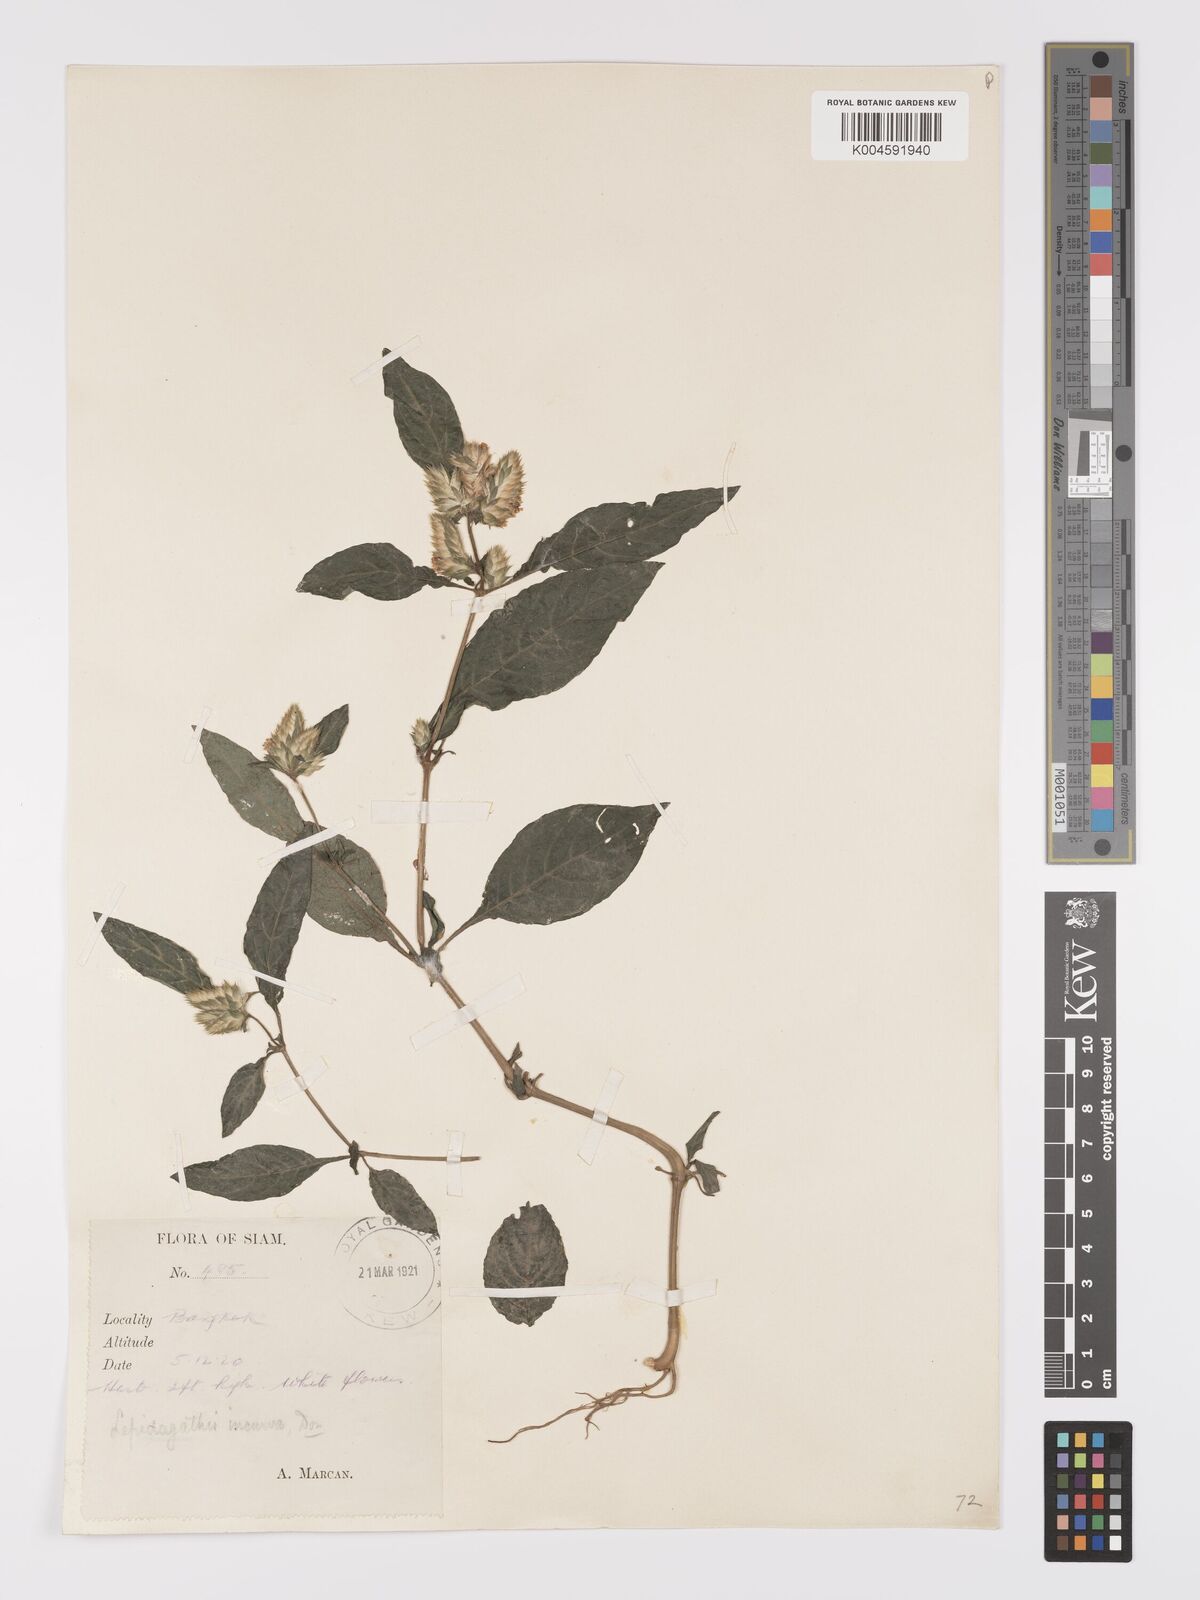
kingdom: Plantae
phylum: Tracheophyta
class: Magnoliopsida
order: Lamiales
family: Acanthaceae
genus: Lepidagathis
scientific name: Lepidagathis incurva
